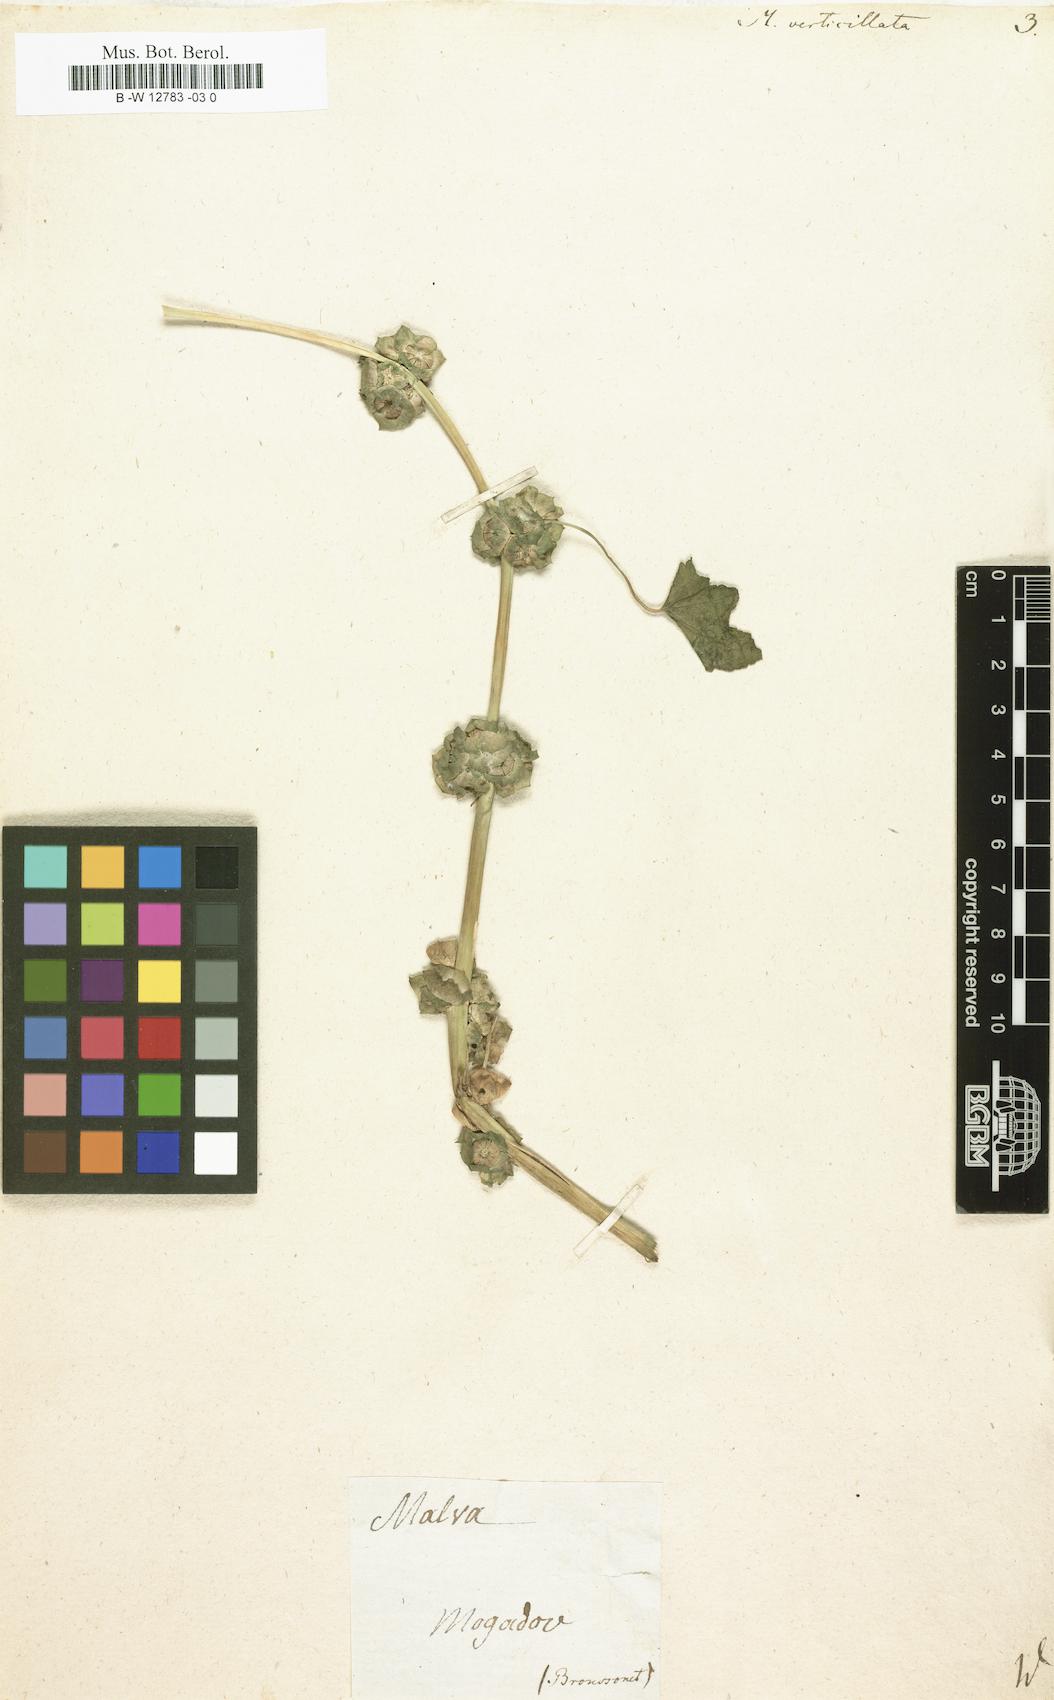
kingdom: Plantae
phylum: Tracheophyta
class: Magnoliopsida
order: Malvales
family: Malvaceae
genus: Malva
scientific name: Malva verticillata
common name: Chinese mallow
